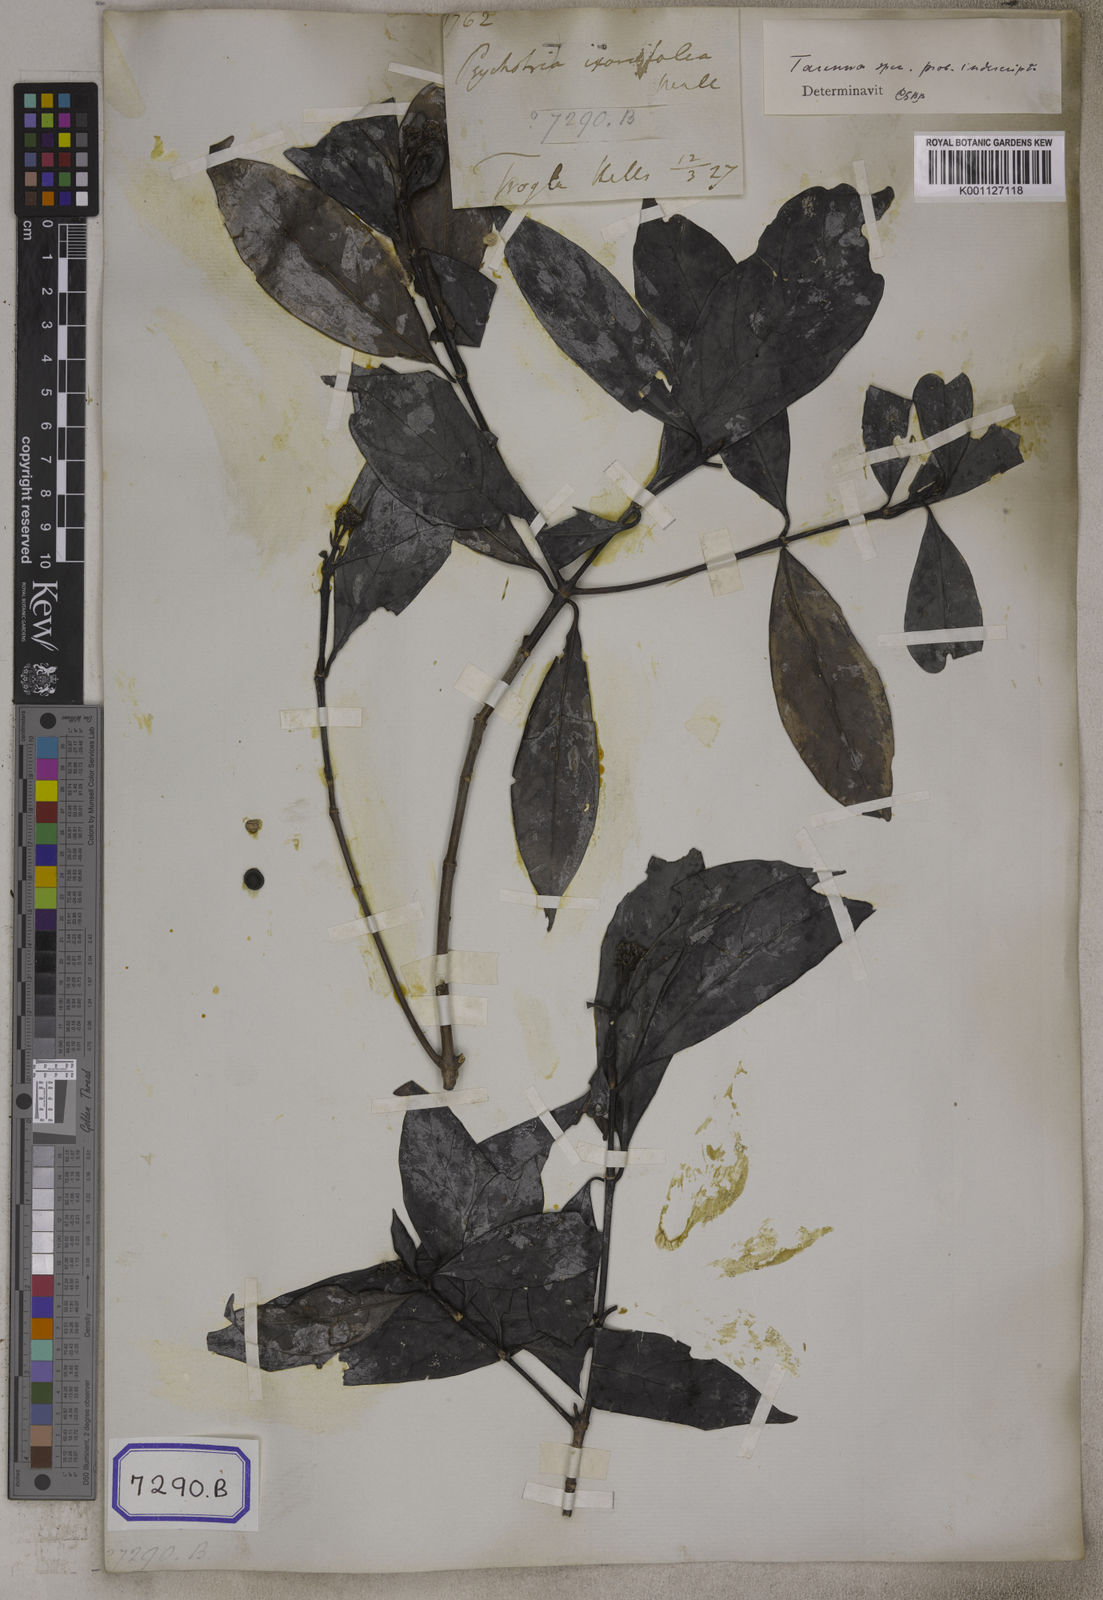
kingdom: Plantae
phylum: Tracheophyta
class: Magnoliopsida
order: Gentianales
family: Rubiaceae
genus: Tarenna
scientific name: Tarenna attenuata
